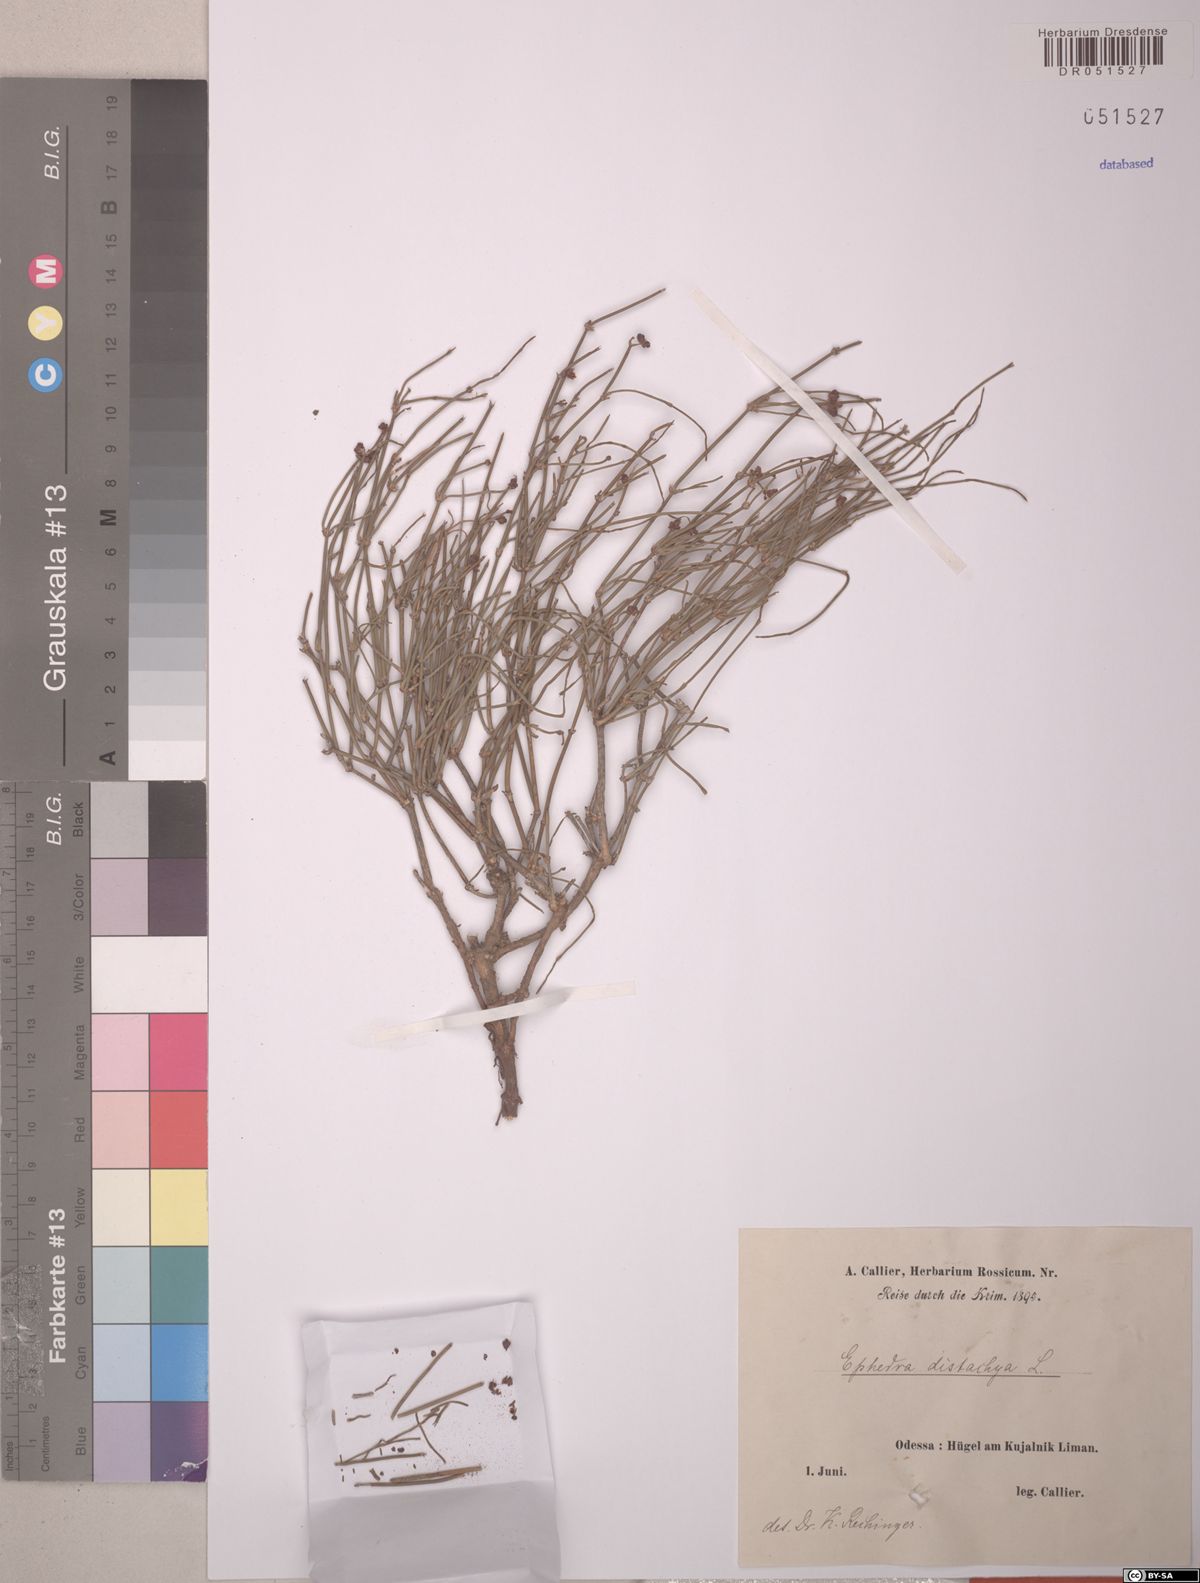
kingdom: Plantae
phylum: Tracheophyta
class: Gnetopsida
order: Ephedrales
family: Ephedraceae
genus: Ephedra
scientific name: Ephedra distachya
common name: Sea grape
